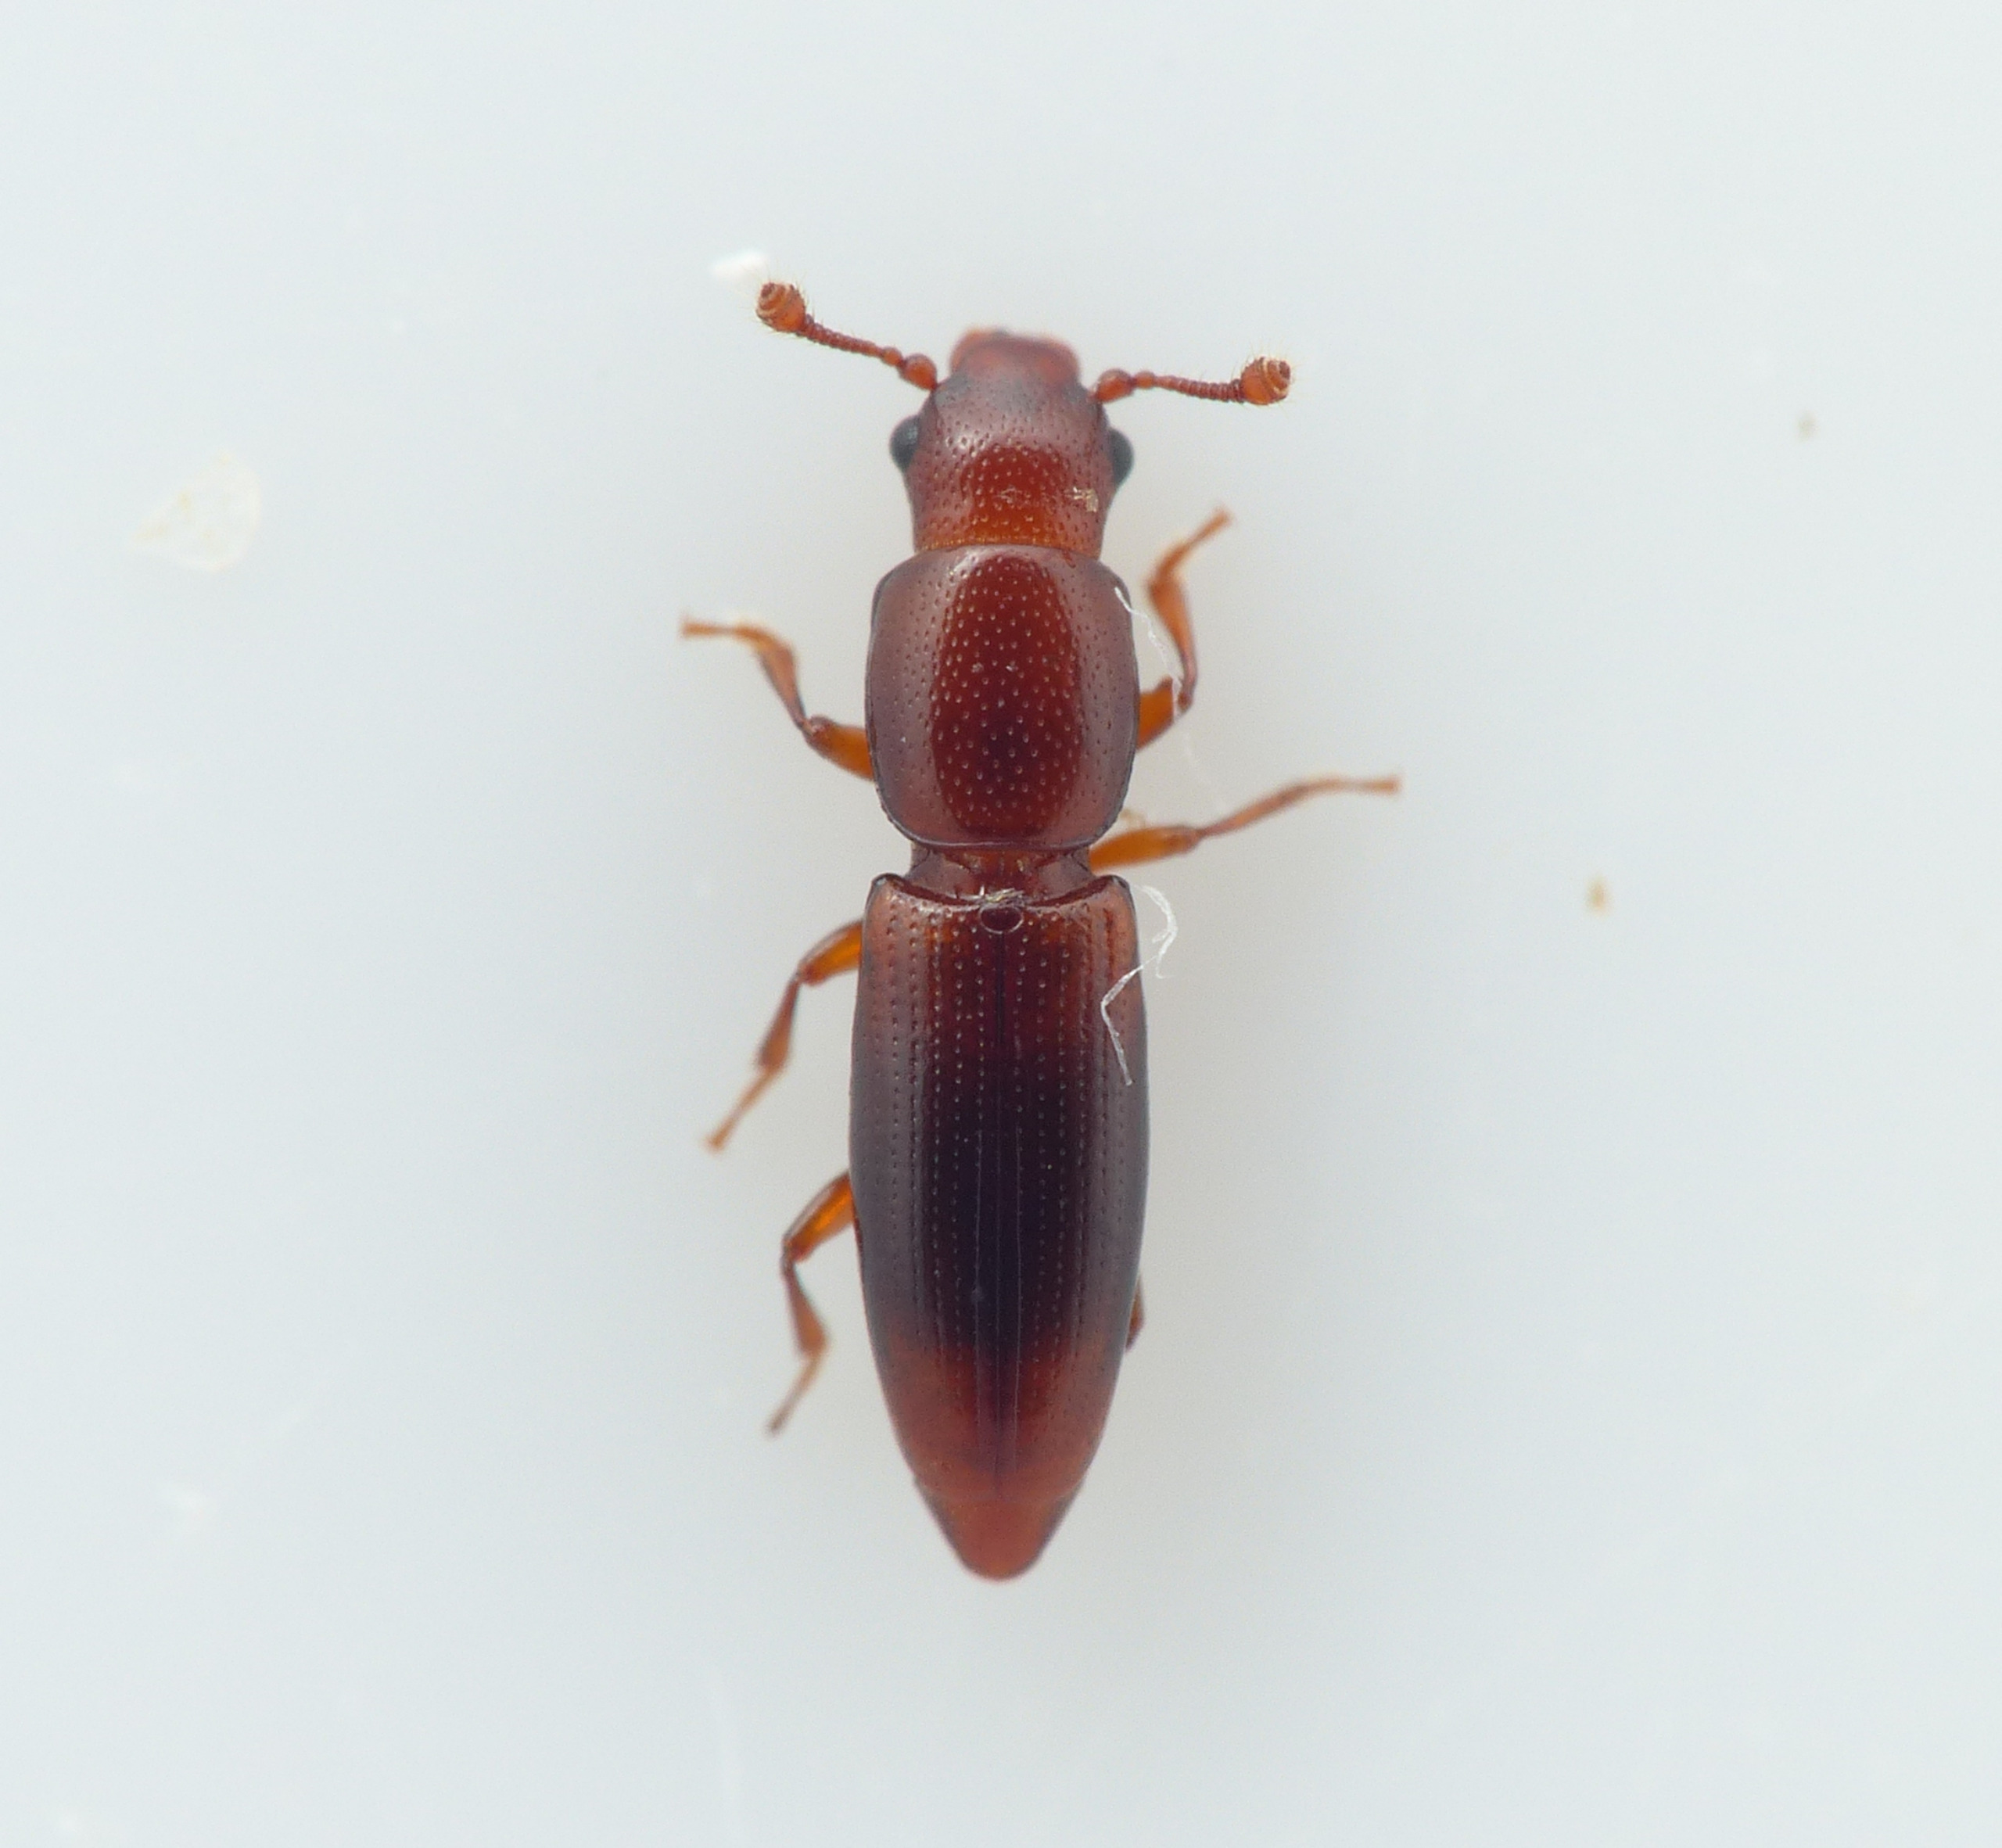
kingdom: Animalia
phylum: Arthropoda
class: Insecta
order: Coleoptera
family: Monotomidae
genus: Rhizophagus
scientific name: Rhizophagus dispar
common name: Almindelig barksmalbille
